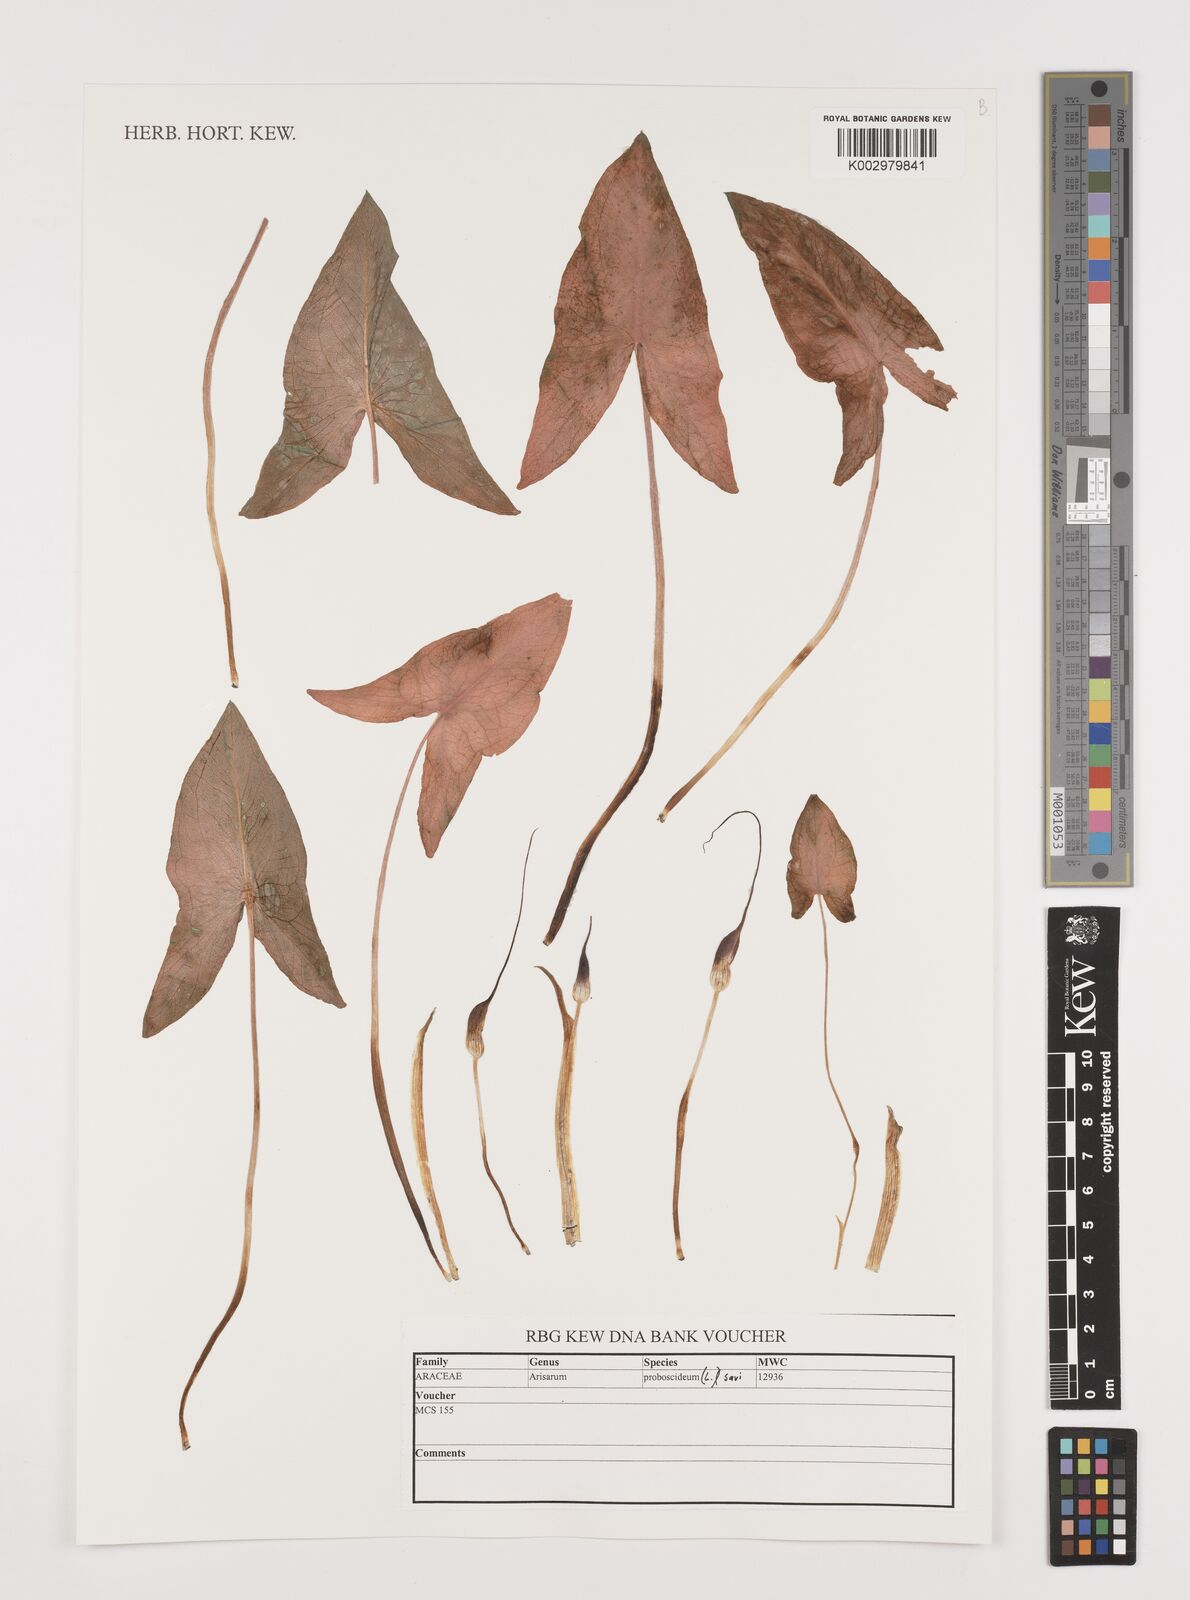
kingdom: Plantae
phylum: Tracheophyta
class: Liliopsida
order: Alismatales
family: Araceae
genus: Arisarum
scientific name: Arisarum proboscideum
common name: Mousetailplant
